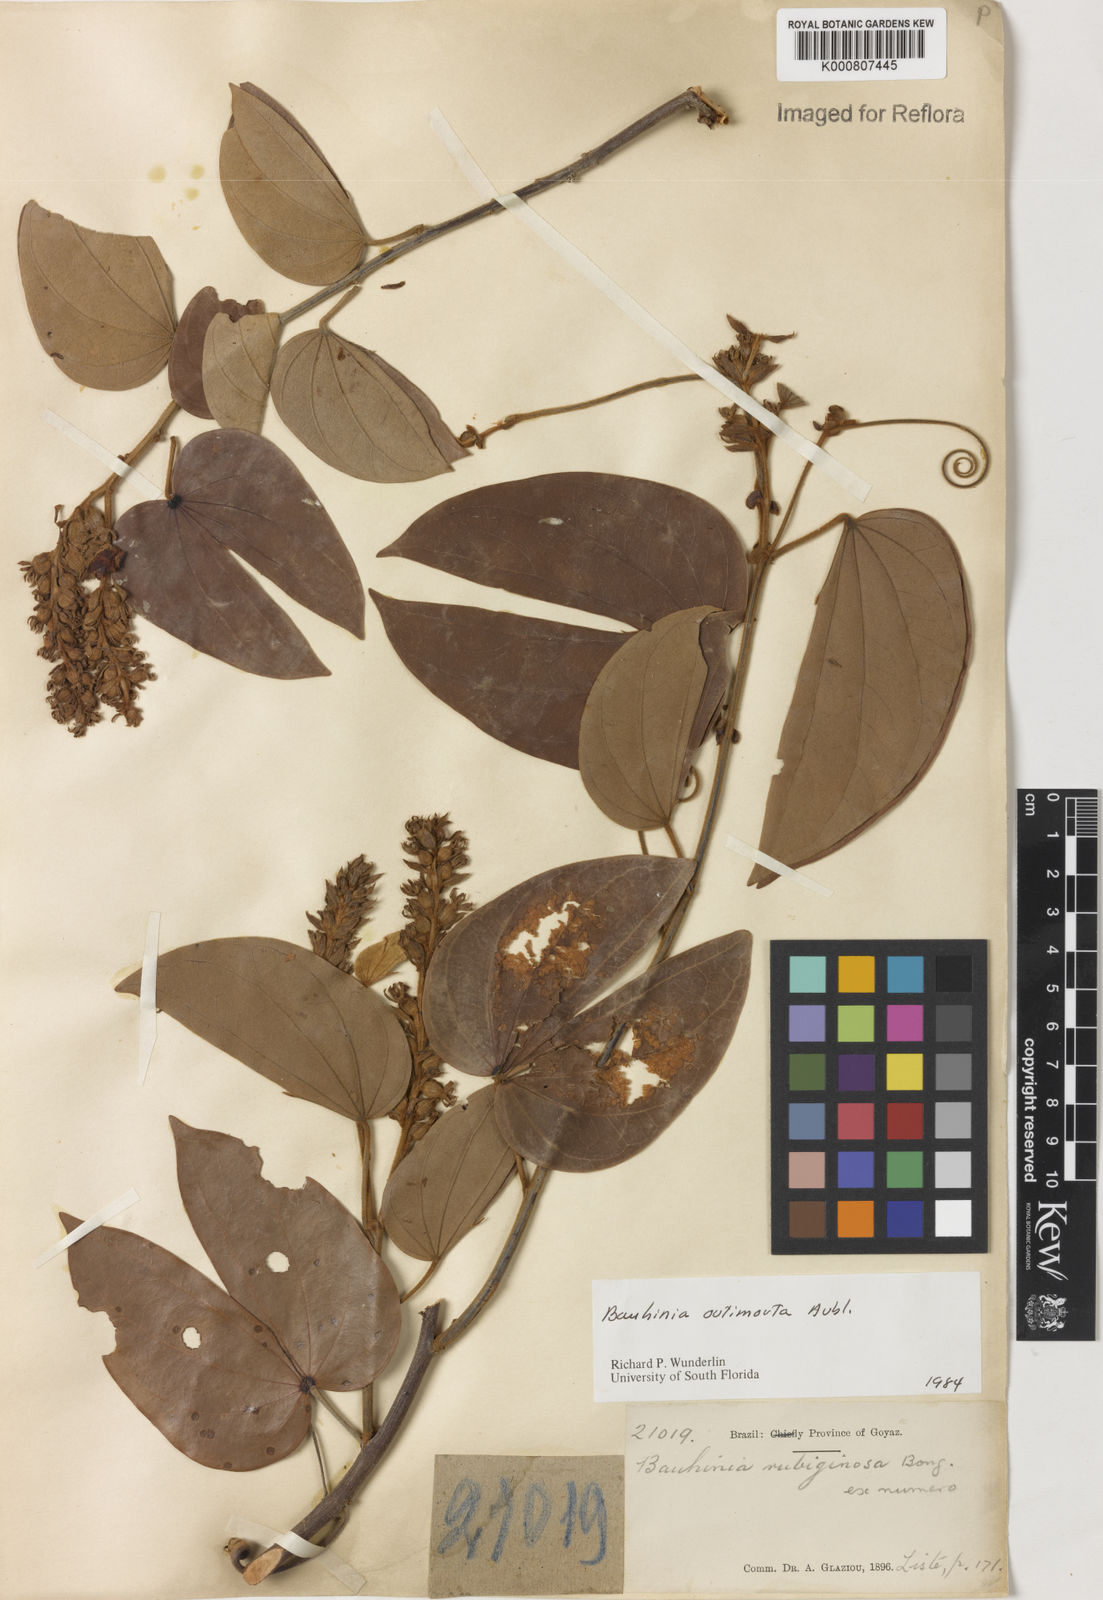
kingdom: Plantae
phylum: Tracheophyta
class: Magnoliopsida
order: Fabales
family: Fabaceae
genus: Schnella
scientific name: Schnella outimouta
